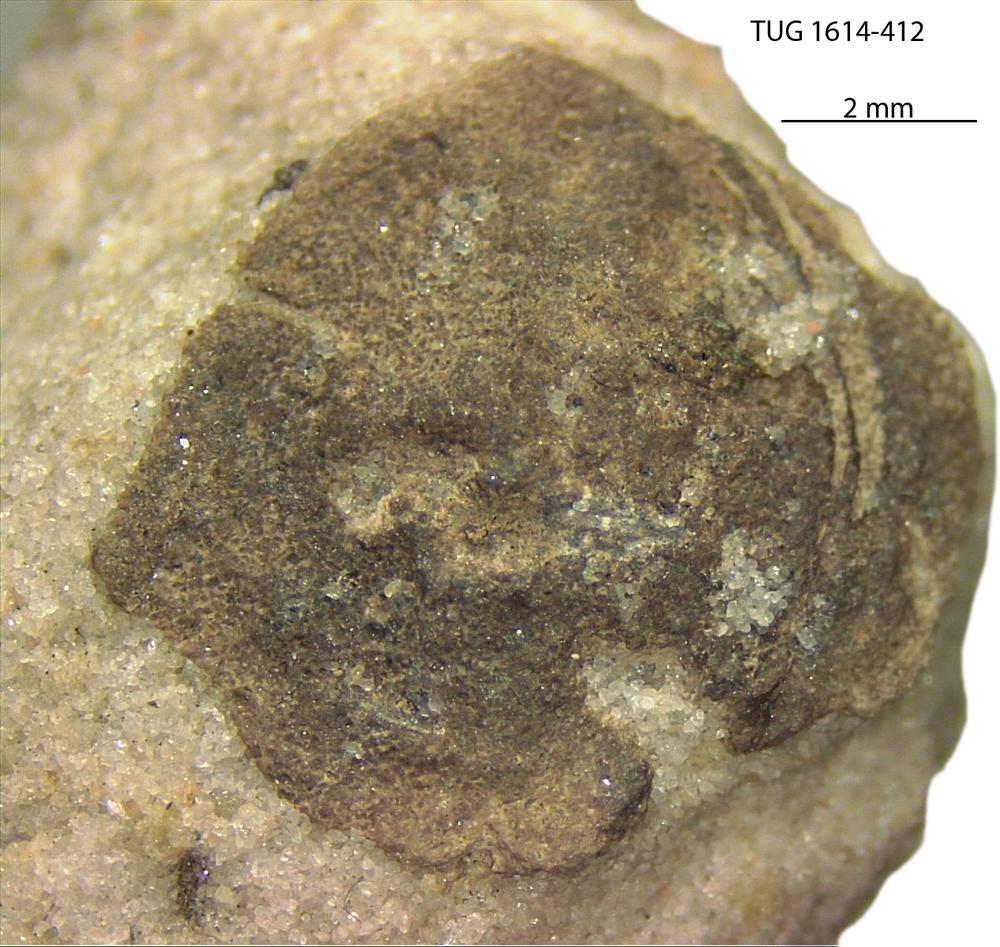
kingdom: Animalia
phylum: Mollusca
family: Scenellidae
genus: Scenella
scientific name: Scenella
